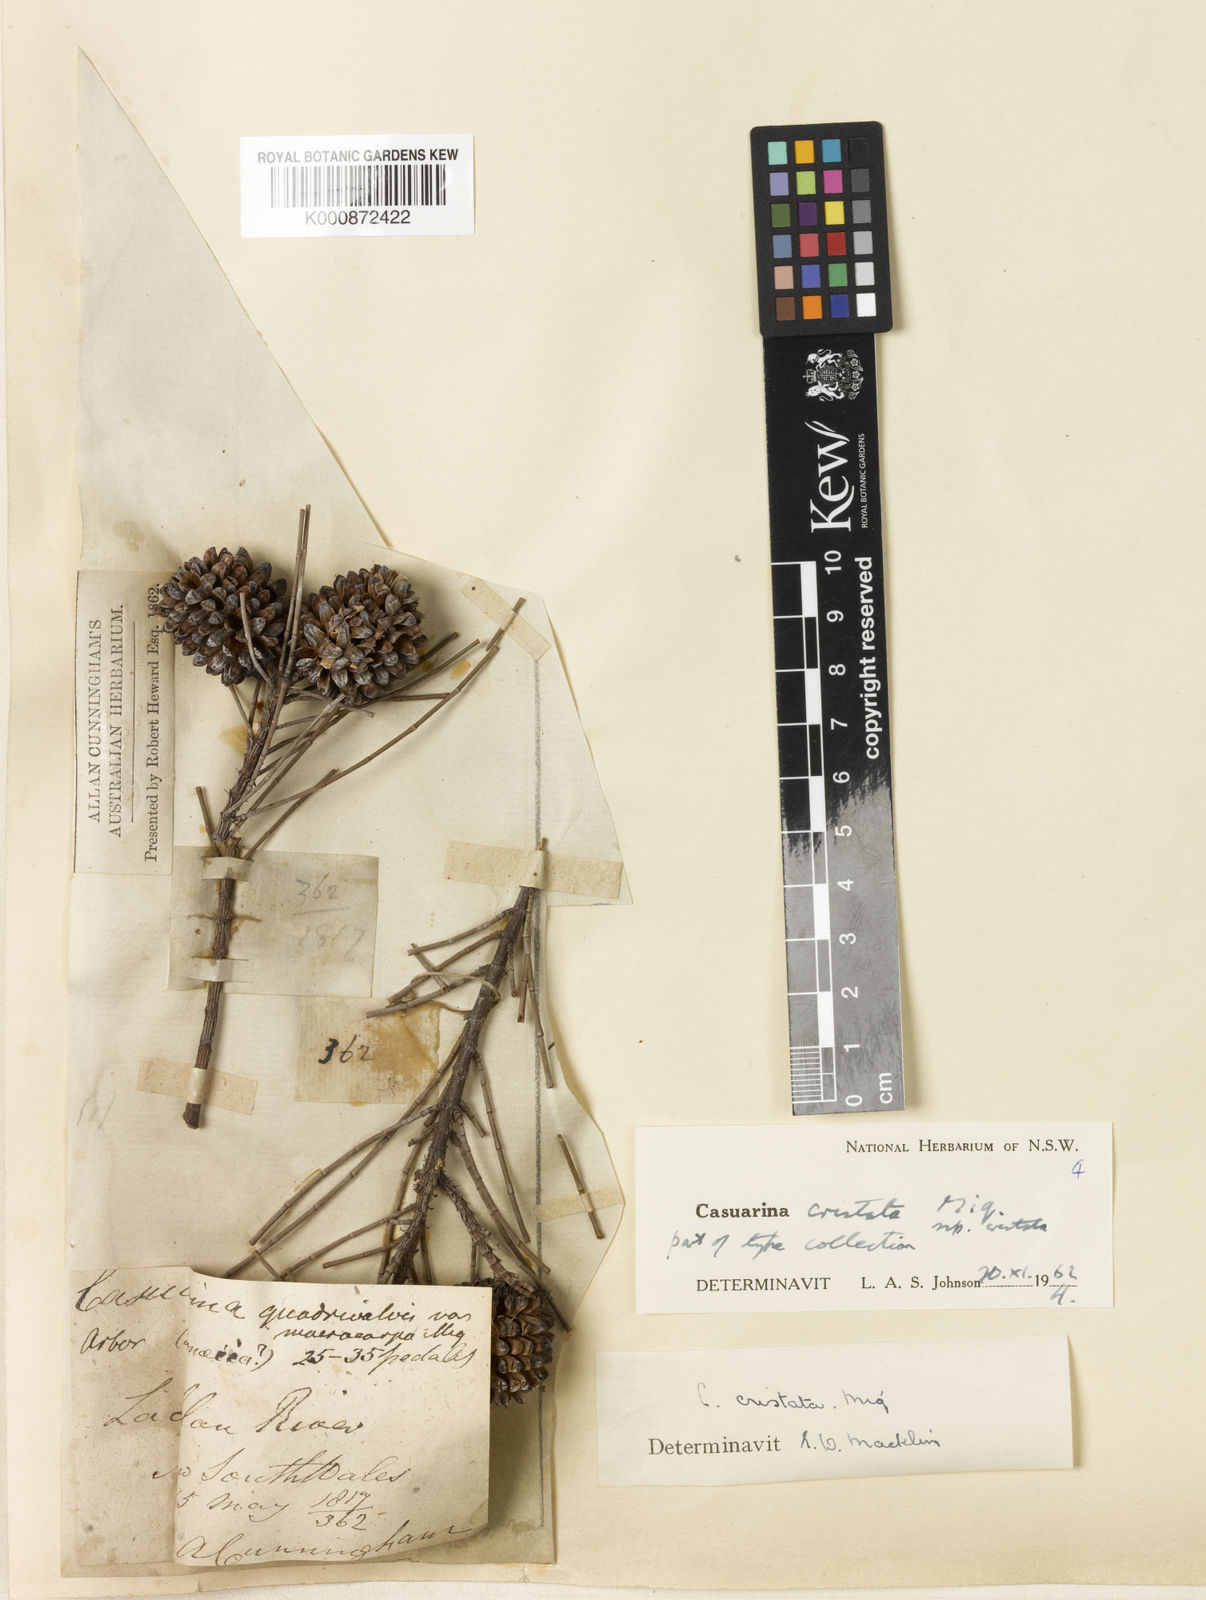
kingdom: Plantae
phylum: Tracheophyta
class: Magnoliopsida
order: Fagales
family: Casuarinaceae
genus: Casuarina
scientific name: Casuarina cristata
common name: Black-oak
